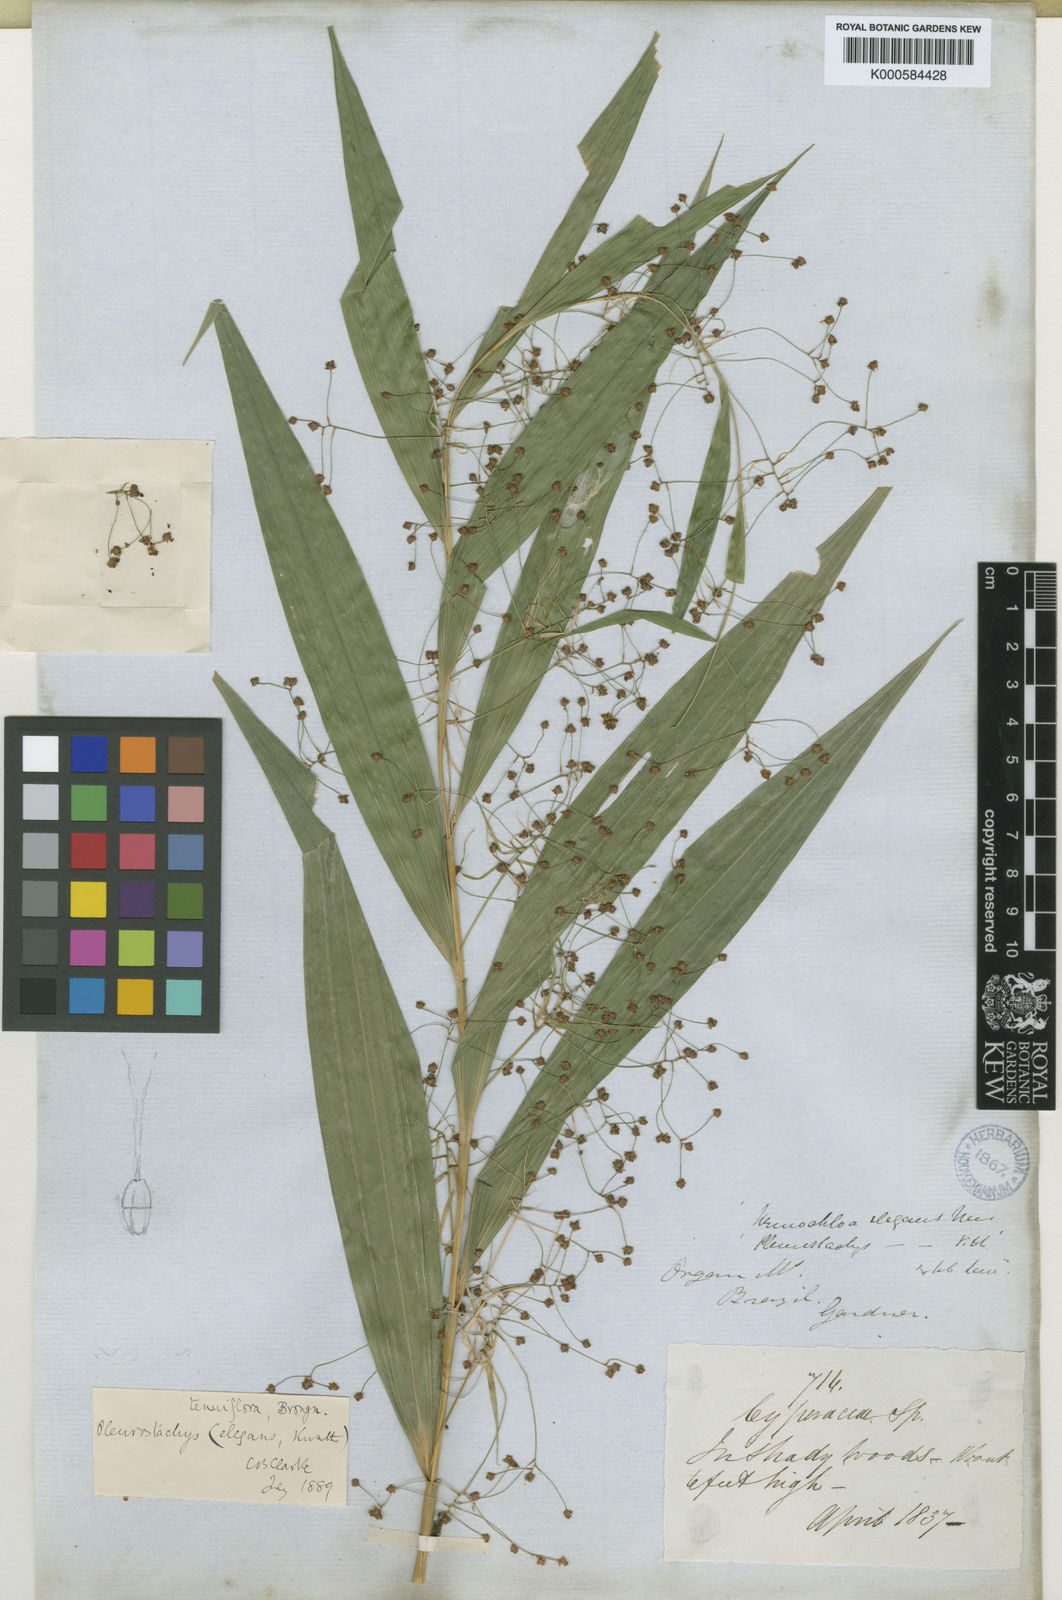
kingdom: Plantae
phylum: Tracheophyta
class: Liliopsida
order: Poales
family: Cyperaceae
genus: Rhynchospora
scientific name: Rhynchospora tenuiflora
